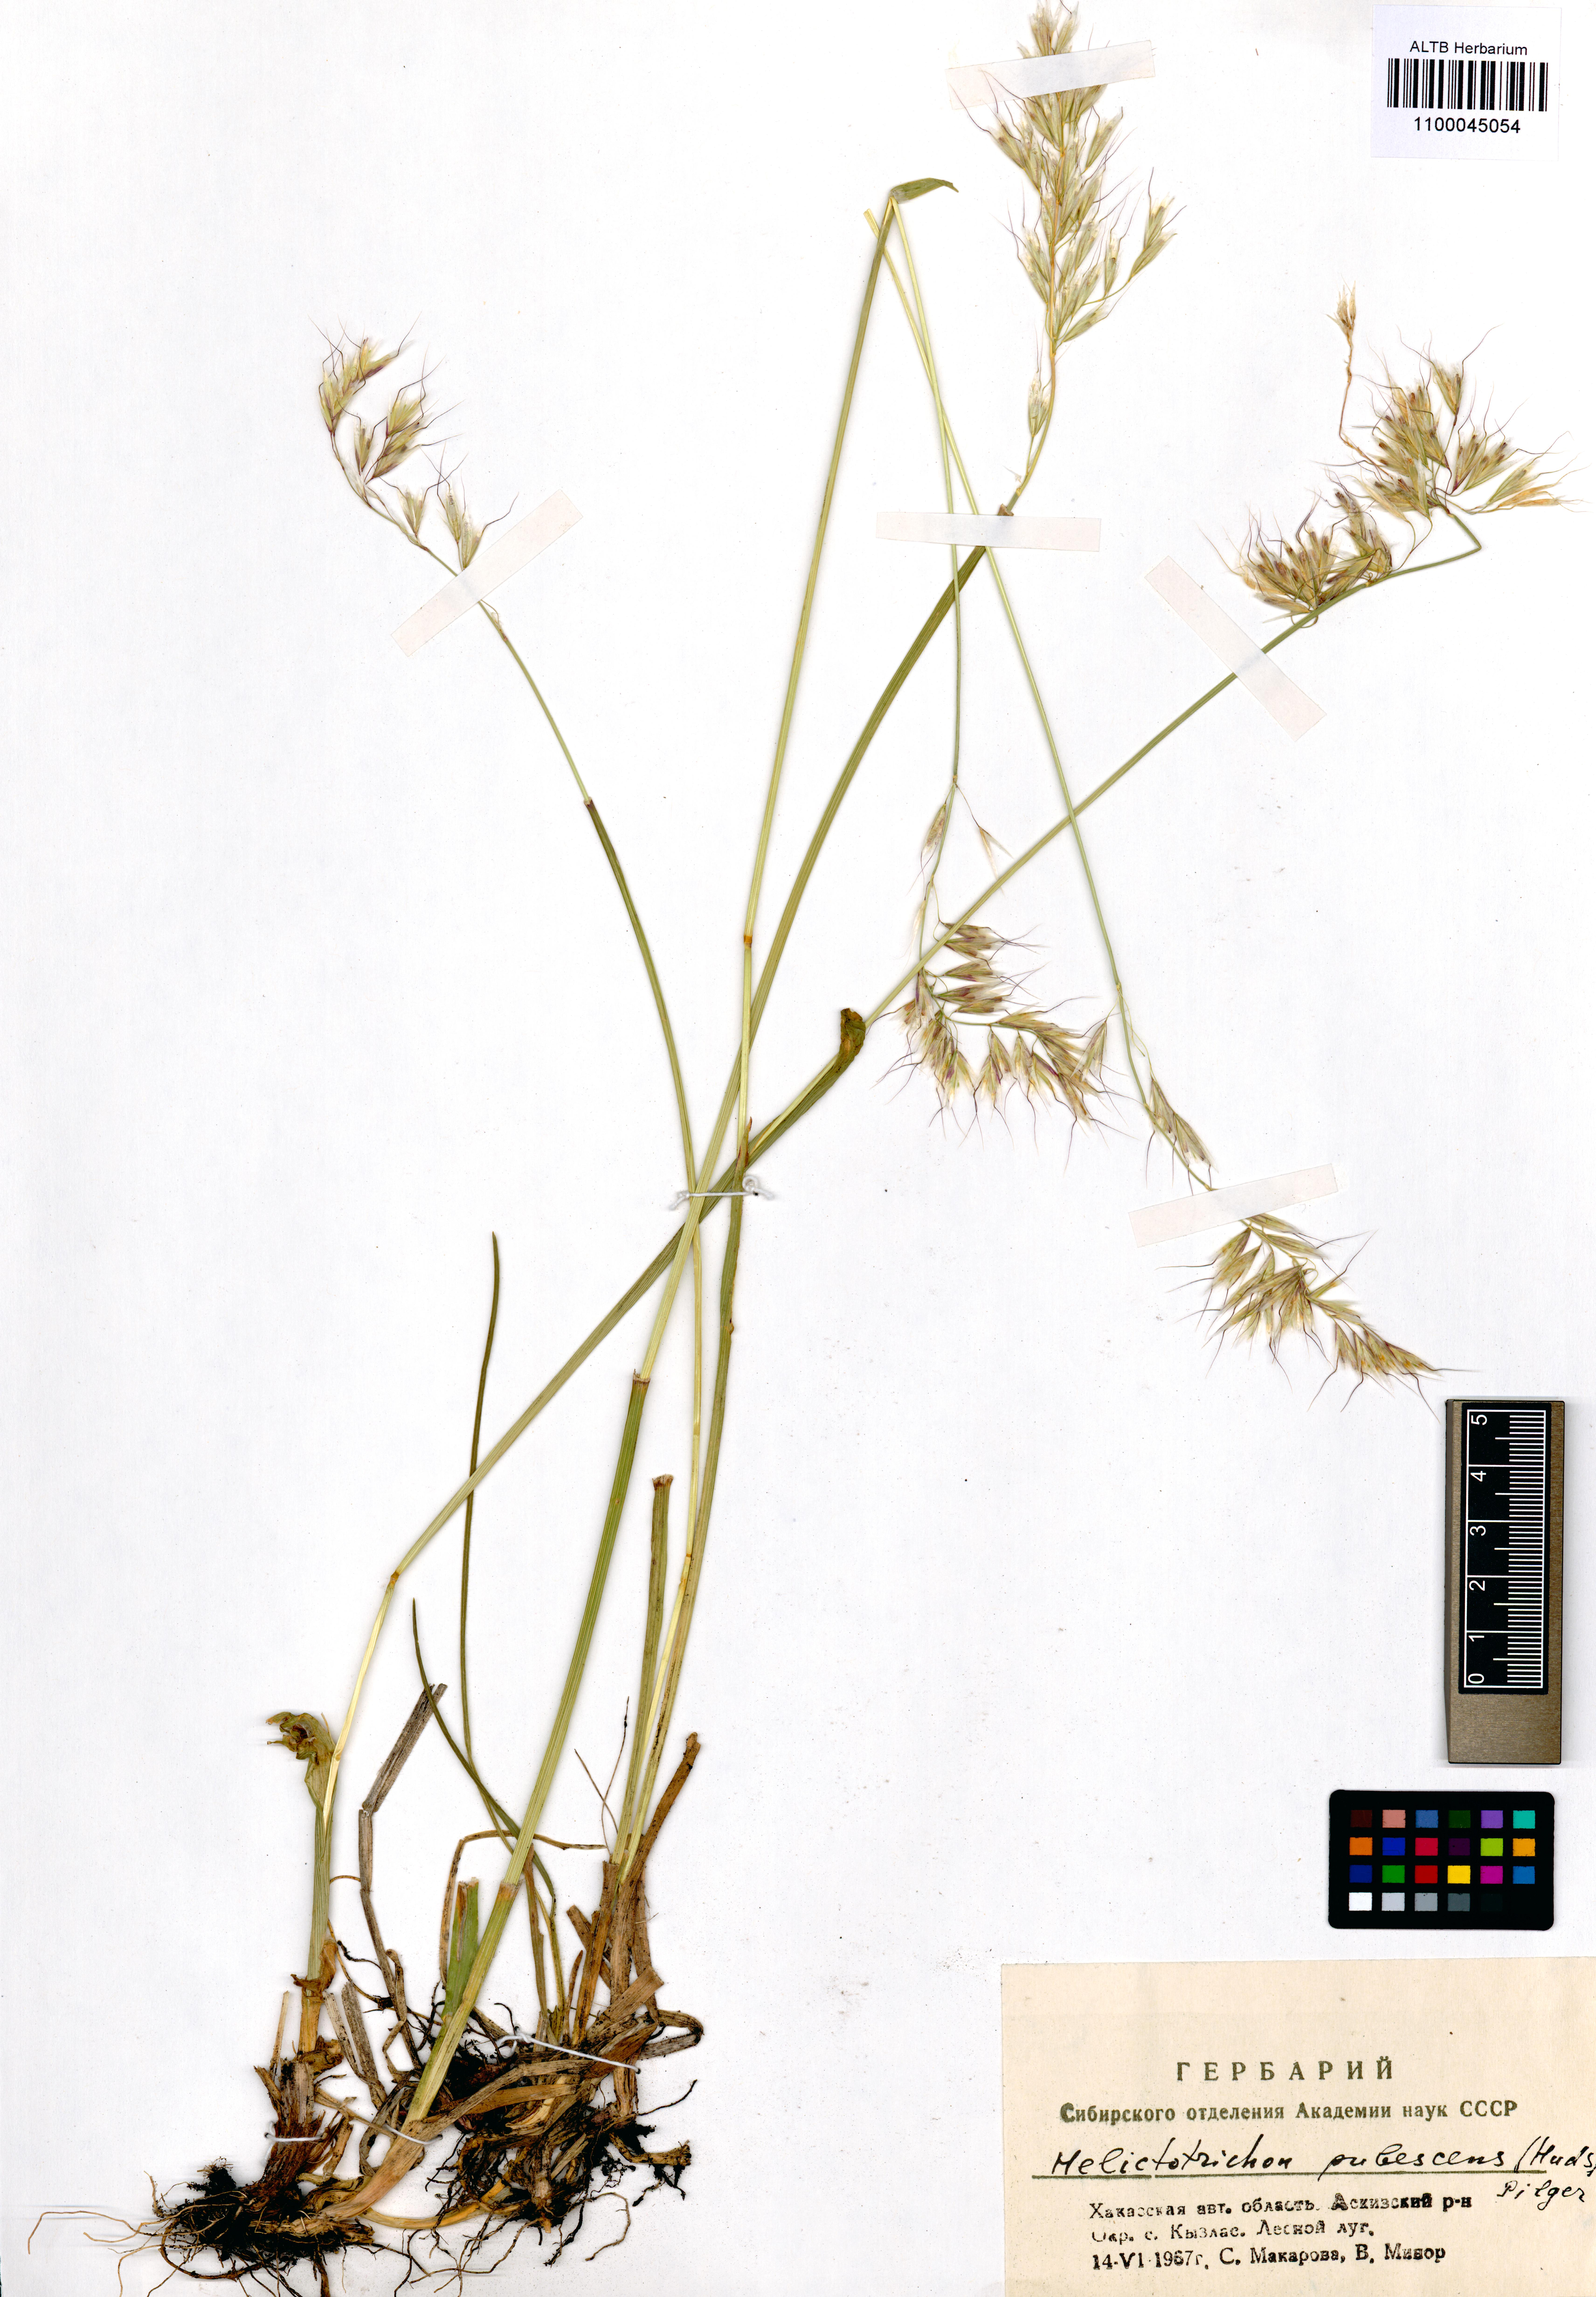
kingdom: Plantae
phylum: Tracheophyta
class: Liliopsida
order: Poales
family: Poaceae
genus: Avenula
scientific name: Avenula pubescens
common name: Downy alpine oatgrass
